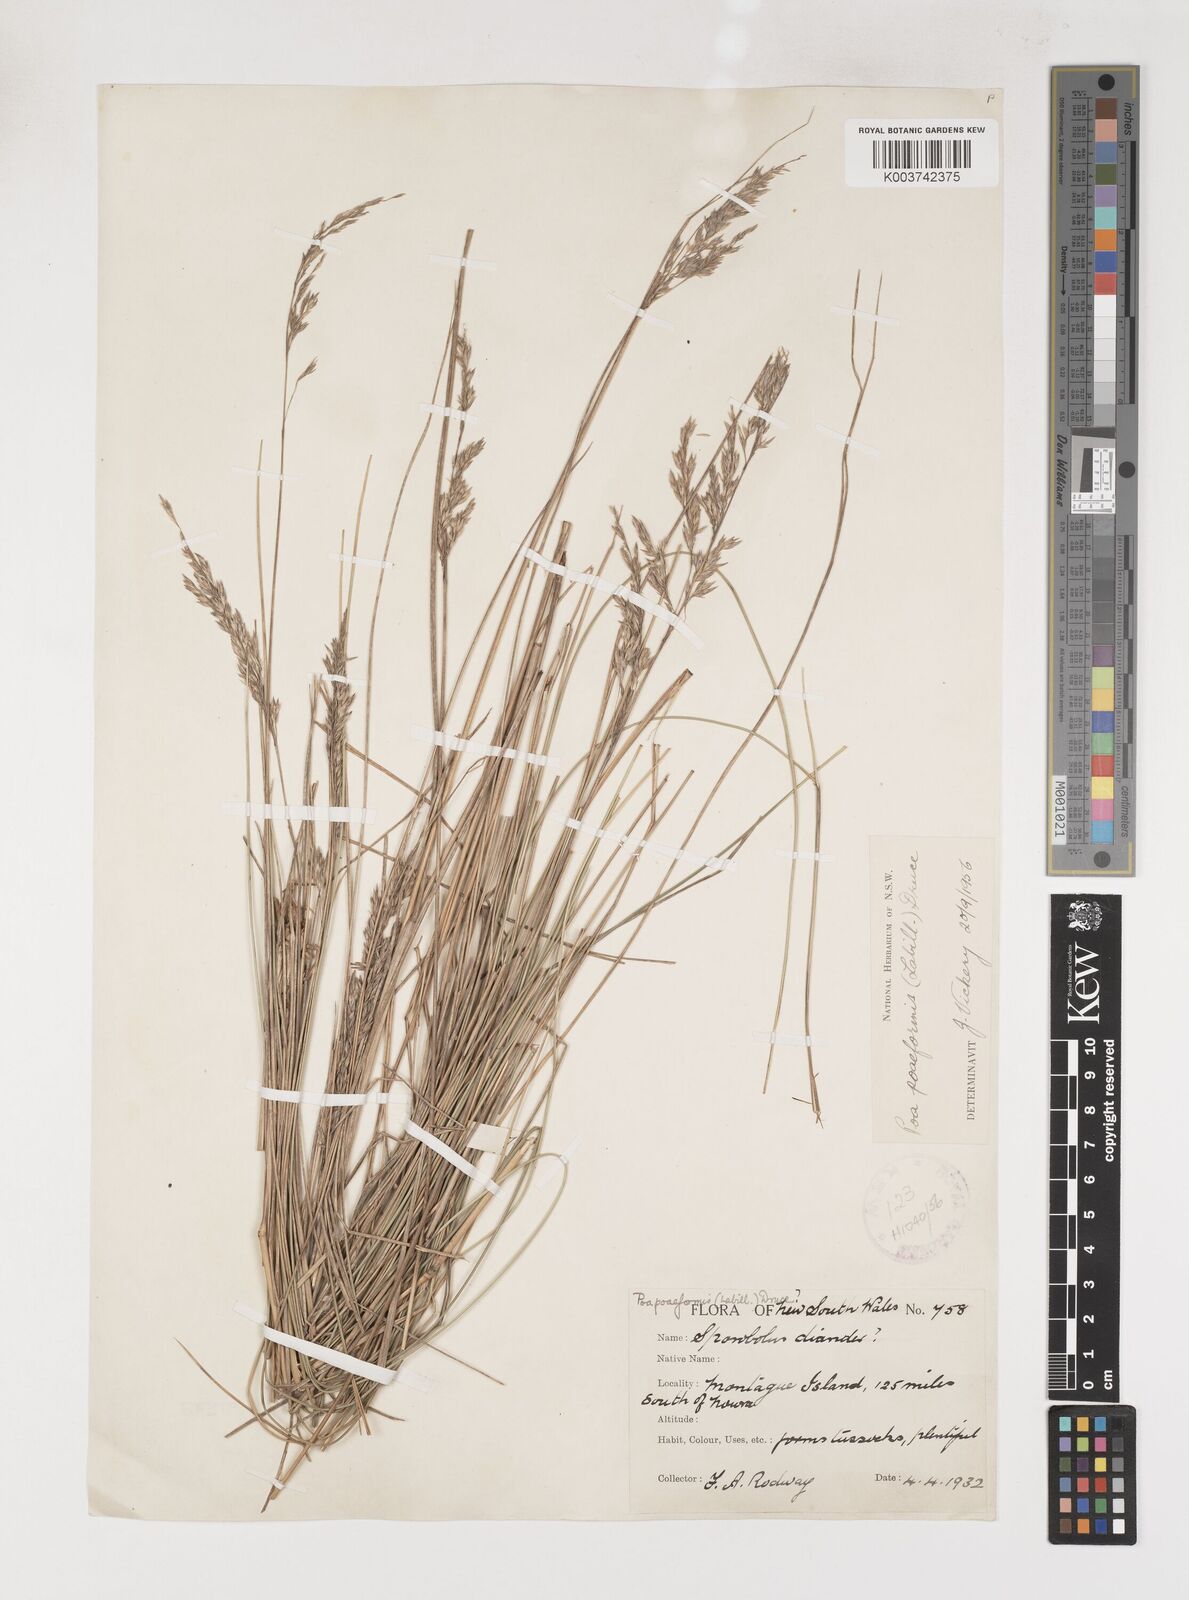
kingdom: Plantae
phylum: Tracheophyta
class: Liliopsida
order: Poales
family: Poaceae
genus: Poa
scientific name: Poa poiformis
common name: Tussock poa
